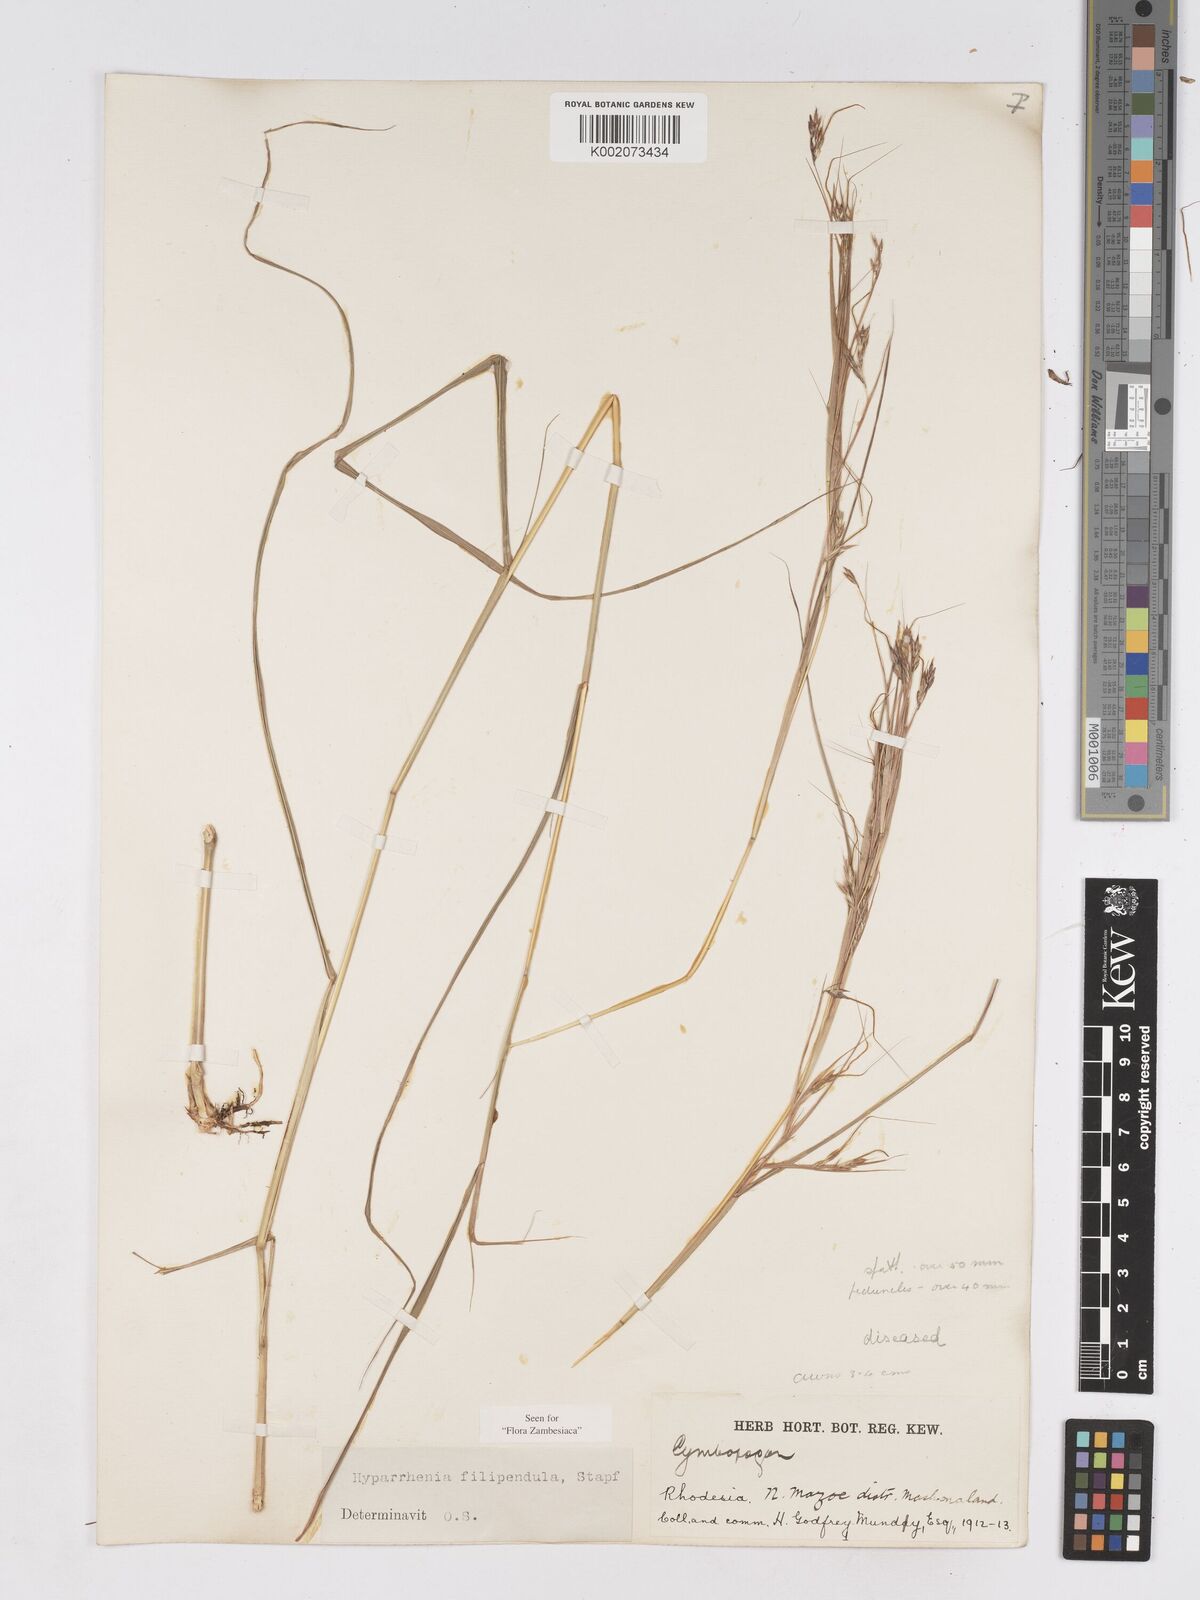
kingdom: Plantae
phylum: Tracheophyta
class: Liliopsida
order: Poales
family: Poaceae
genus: Hyparrhenia
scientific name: Hyparrhenia filipendula
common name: Tambookie grass
